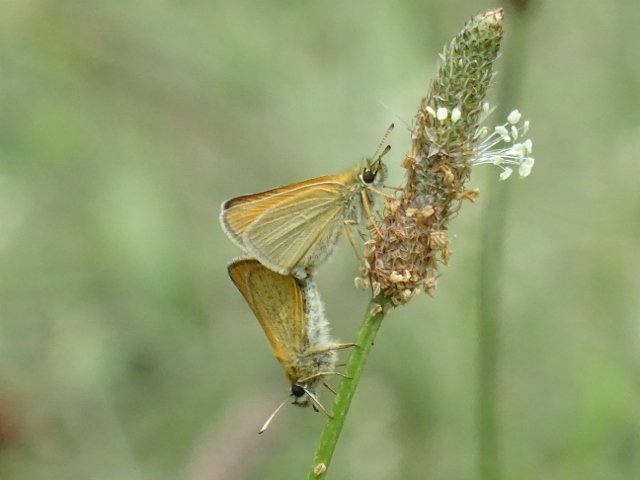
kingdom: Animalia
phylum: Arthropoda
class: Insecta
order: Lepidoptera
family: Hesperiidae
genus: Thymelicus
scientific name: Thymelicus lineola
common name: European Skipper
